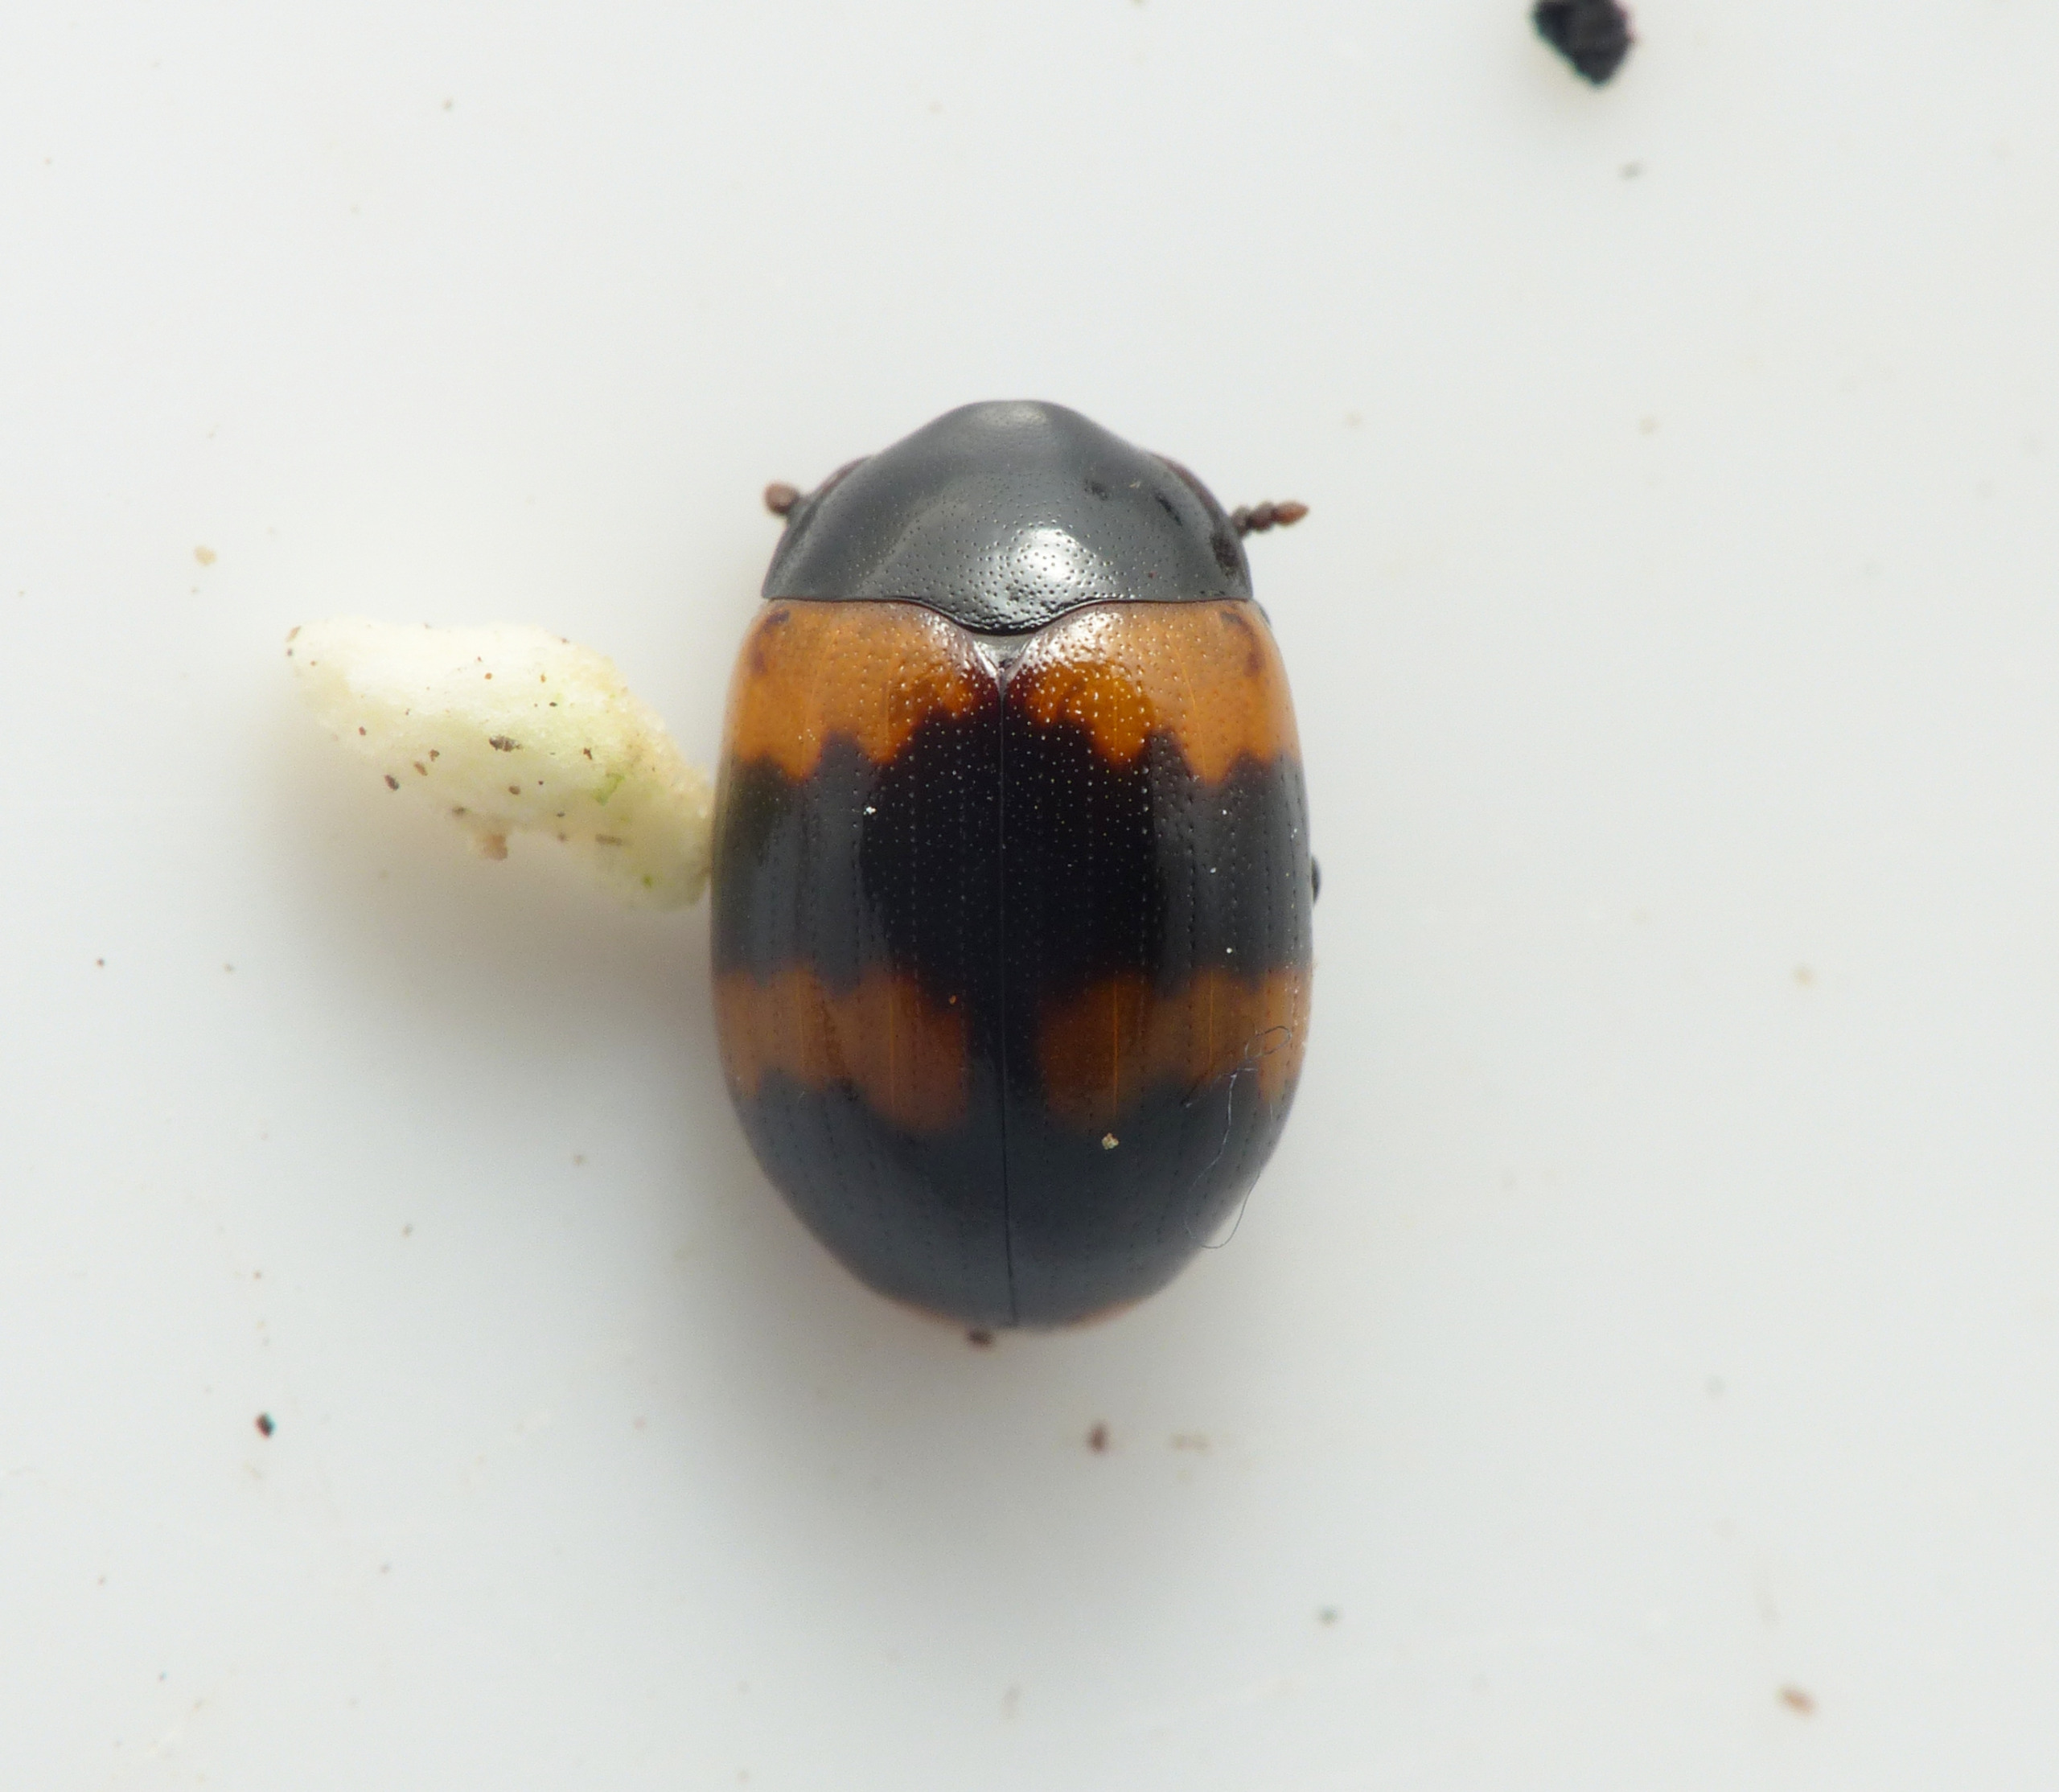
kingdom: Animalia
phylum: Arthropoda
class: Insecta
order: Coleoptera
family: Tenebrionidae
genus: Diaperis
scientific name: Diaperis boleti
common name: Tigerskyggebille
